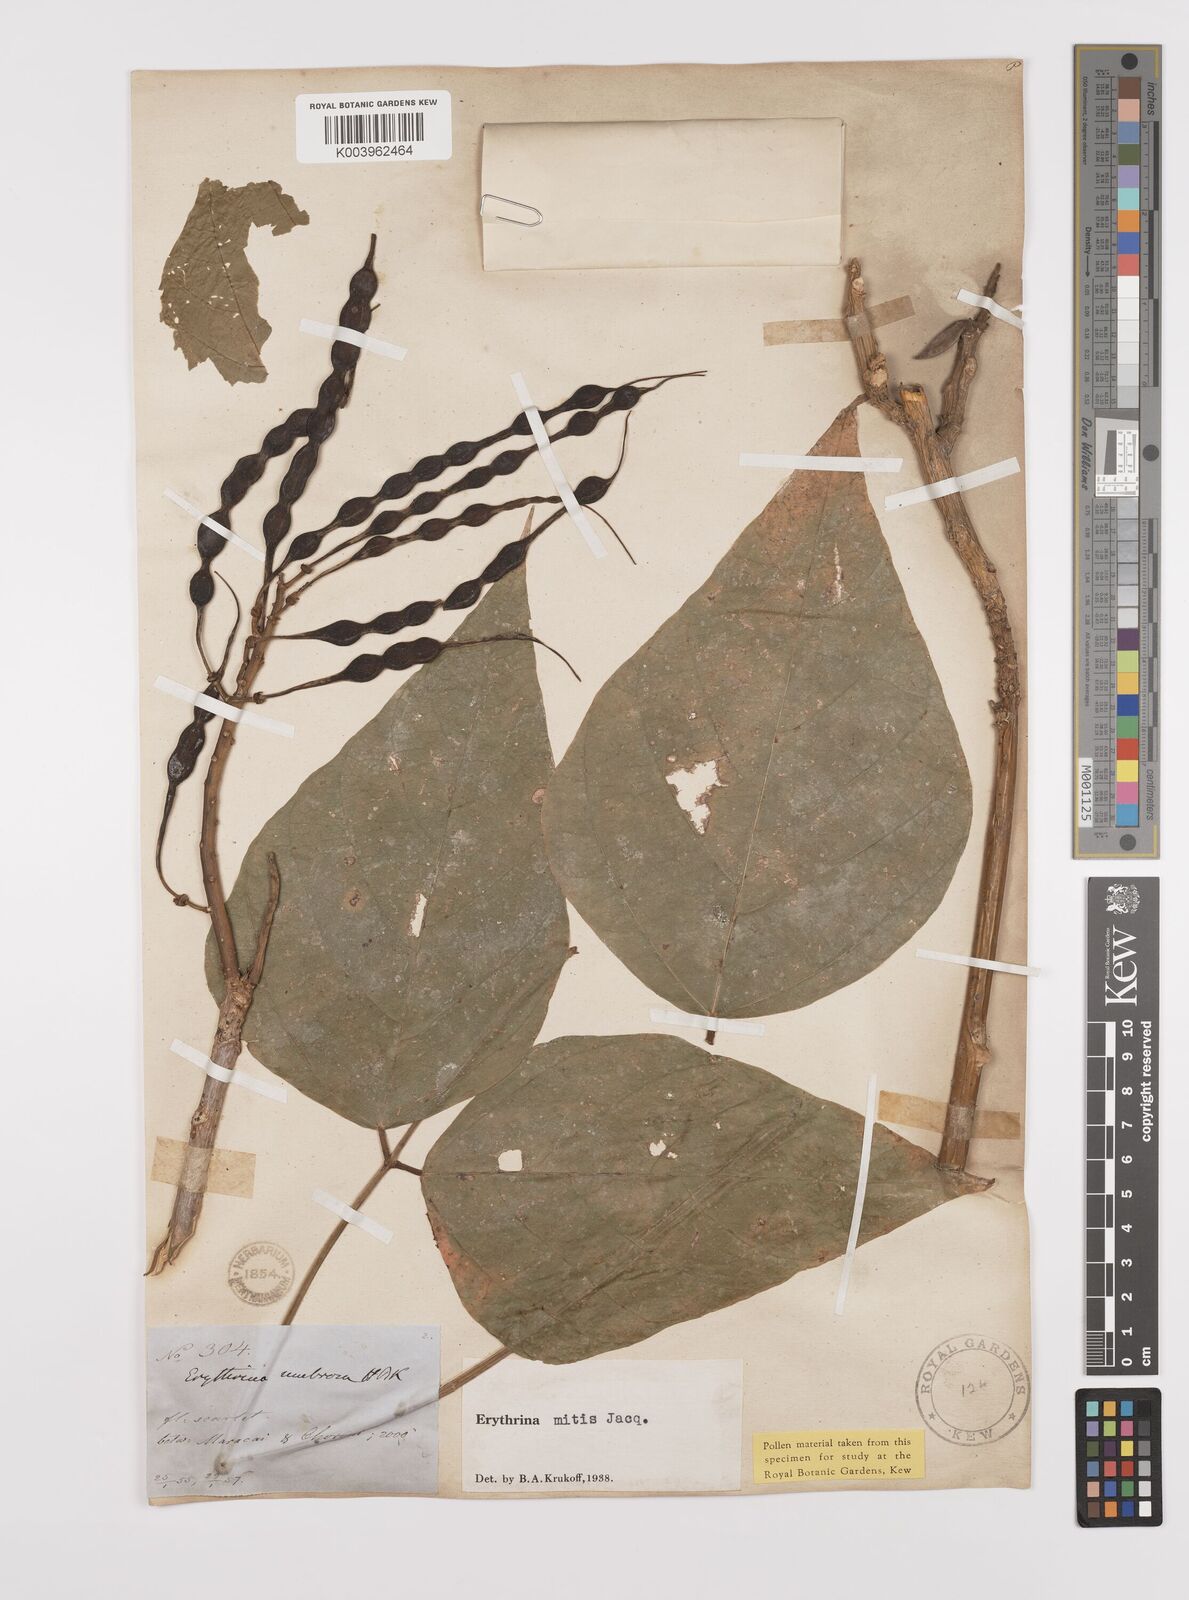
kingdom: Plantae
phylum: Tracheophyta
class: Magnoliopsida
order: Fabales
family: Fabaceae
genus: Erythrina
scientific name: Erythrina mitis
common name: Mortel
